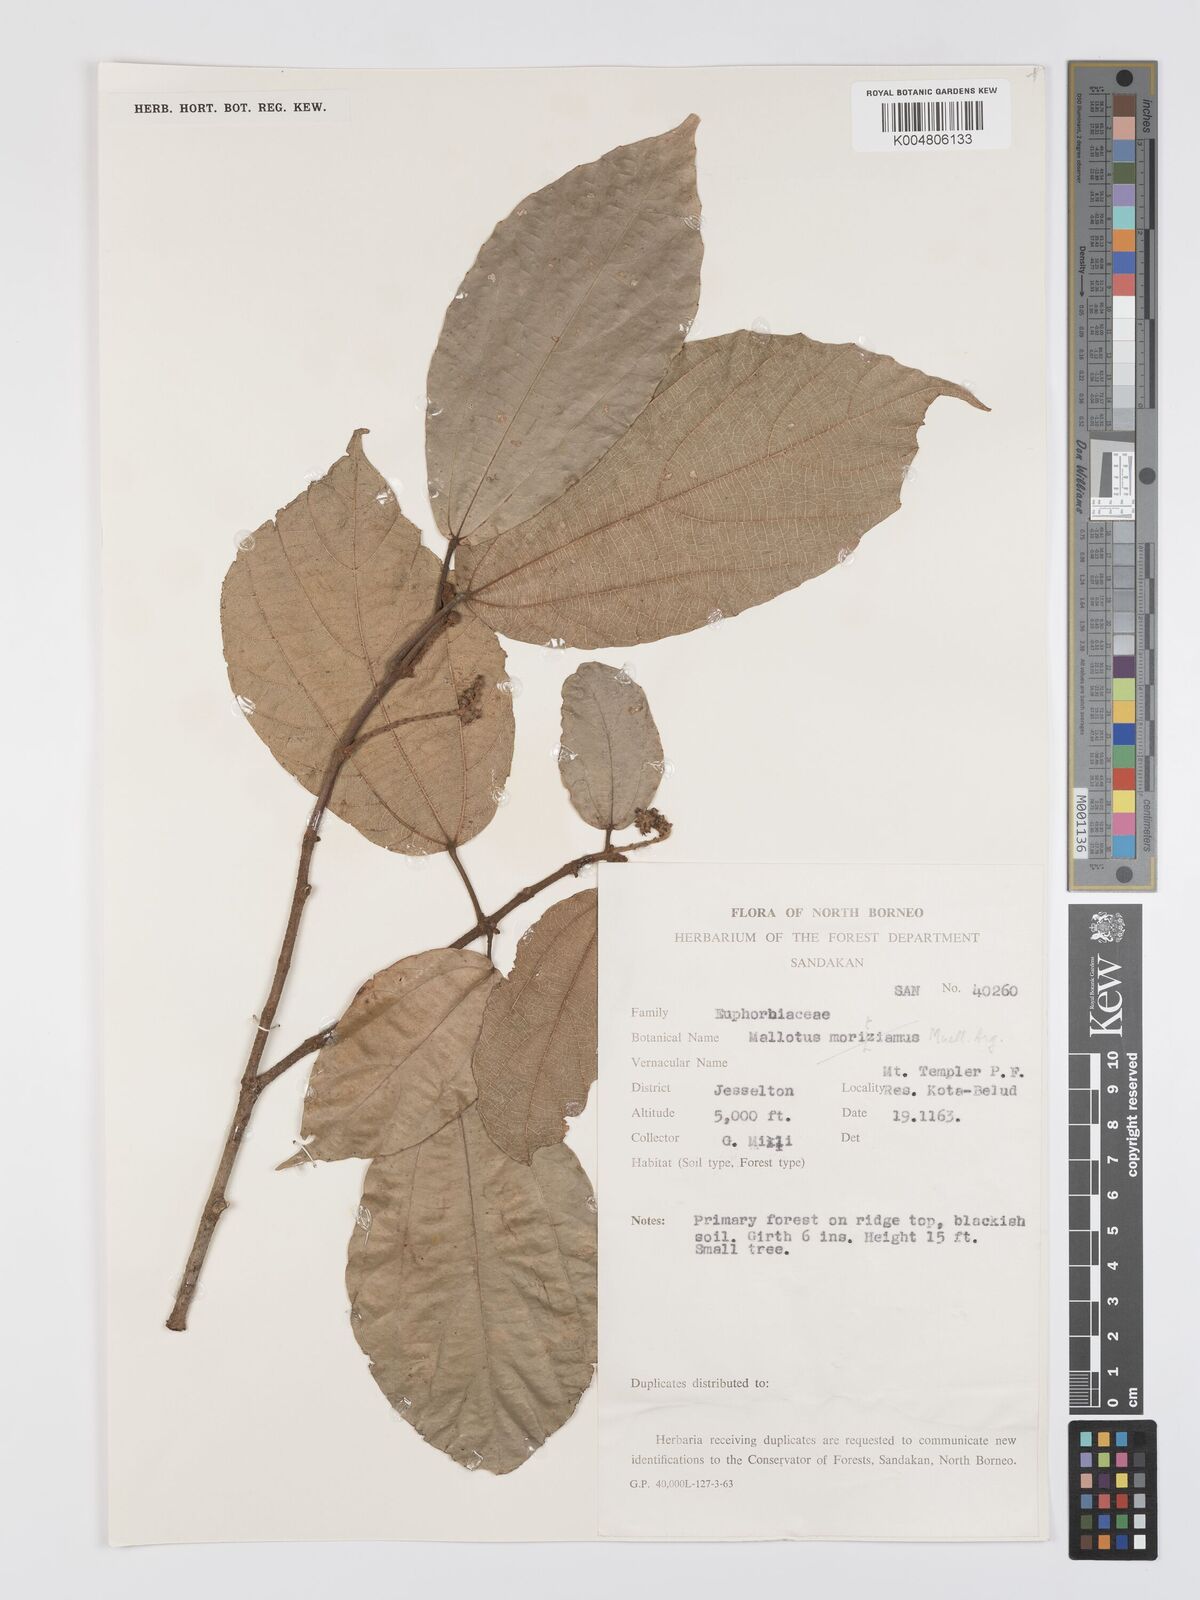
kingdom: Plantae
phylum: Tracheophyta
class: Magnoliopsida
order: Malpighiales
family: Euphorbiaceae
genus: Mallotus
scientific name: Mallotus korthalsii
